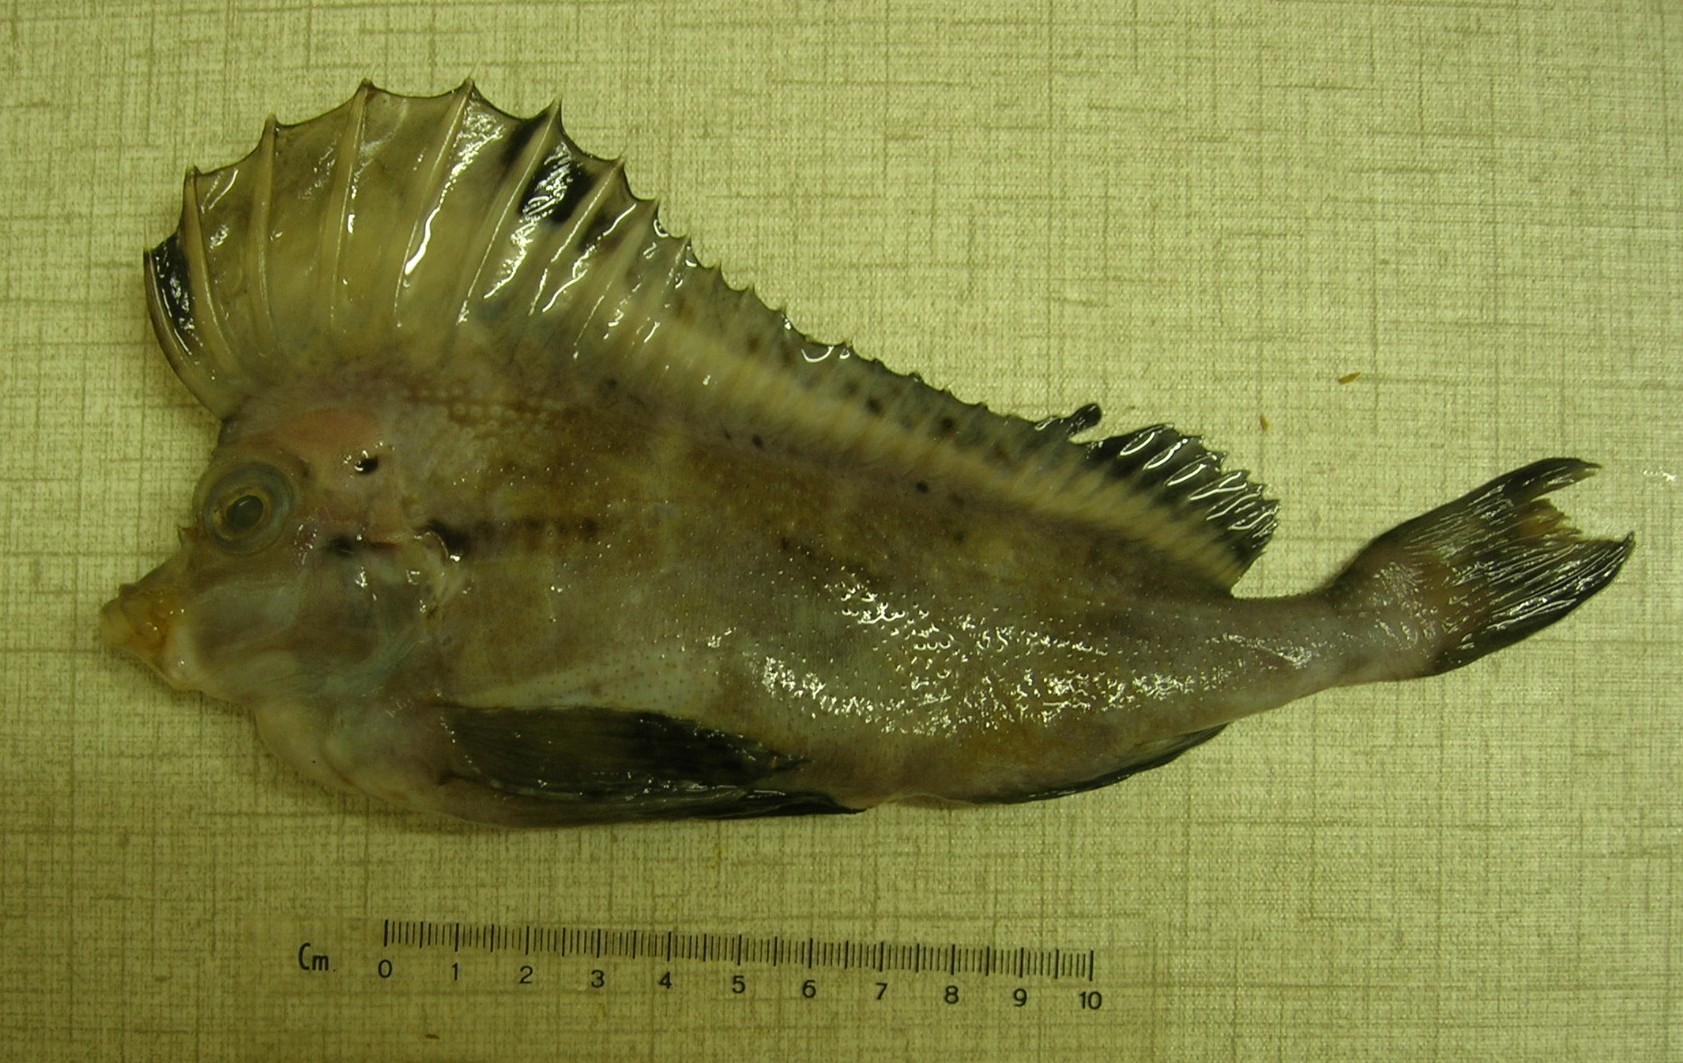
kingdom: Animalia
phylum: Chordata
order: Scorpaeniformes
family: Congiopodidae
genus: Congiopodus
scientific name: Congiopodus spinifer
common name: Spinenose horsefish
